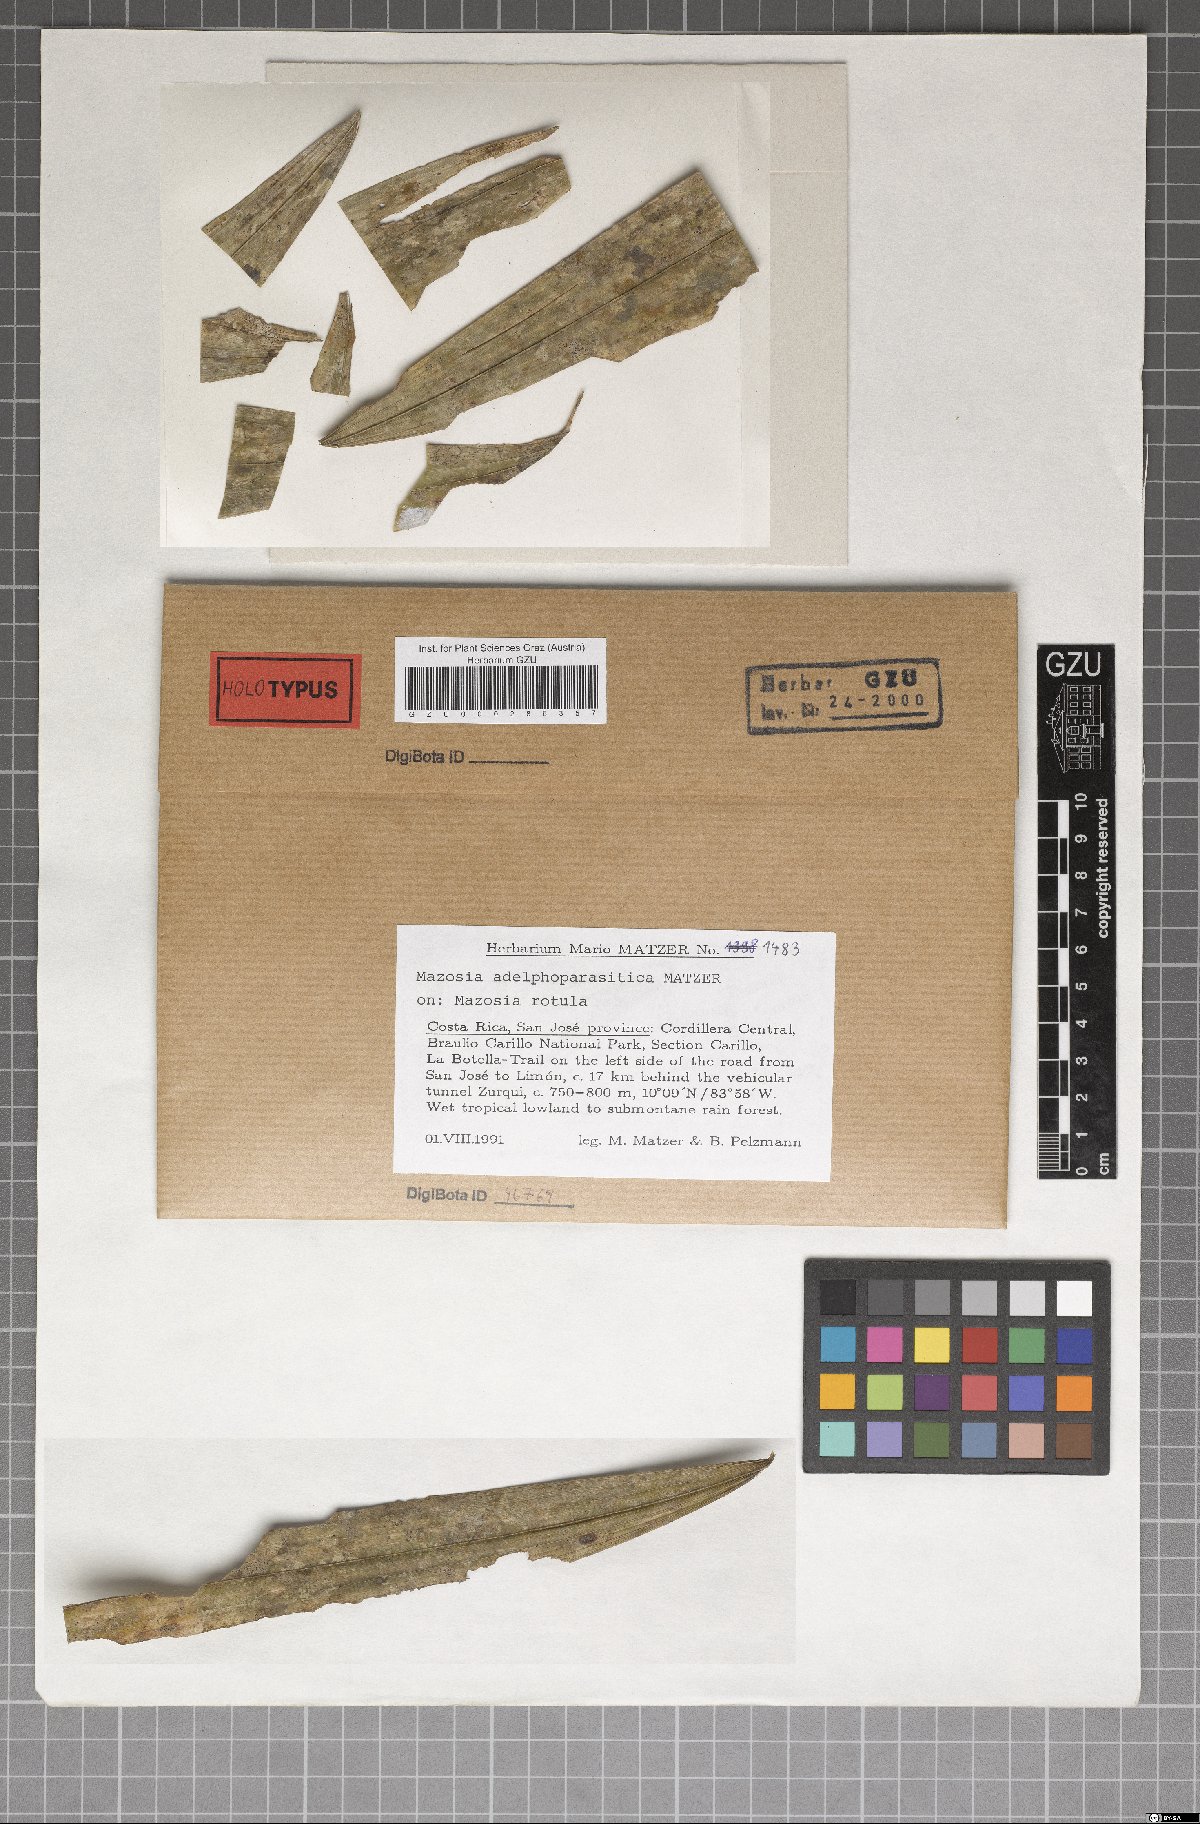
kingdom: Fungi
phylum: Ascomycota
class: Arthoniomycetes
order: Arthoniales
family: Roccellaceae
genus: Mazosia
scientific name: Mazosia
